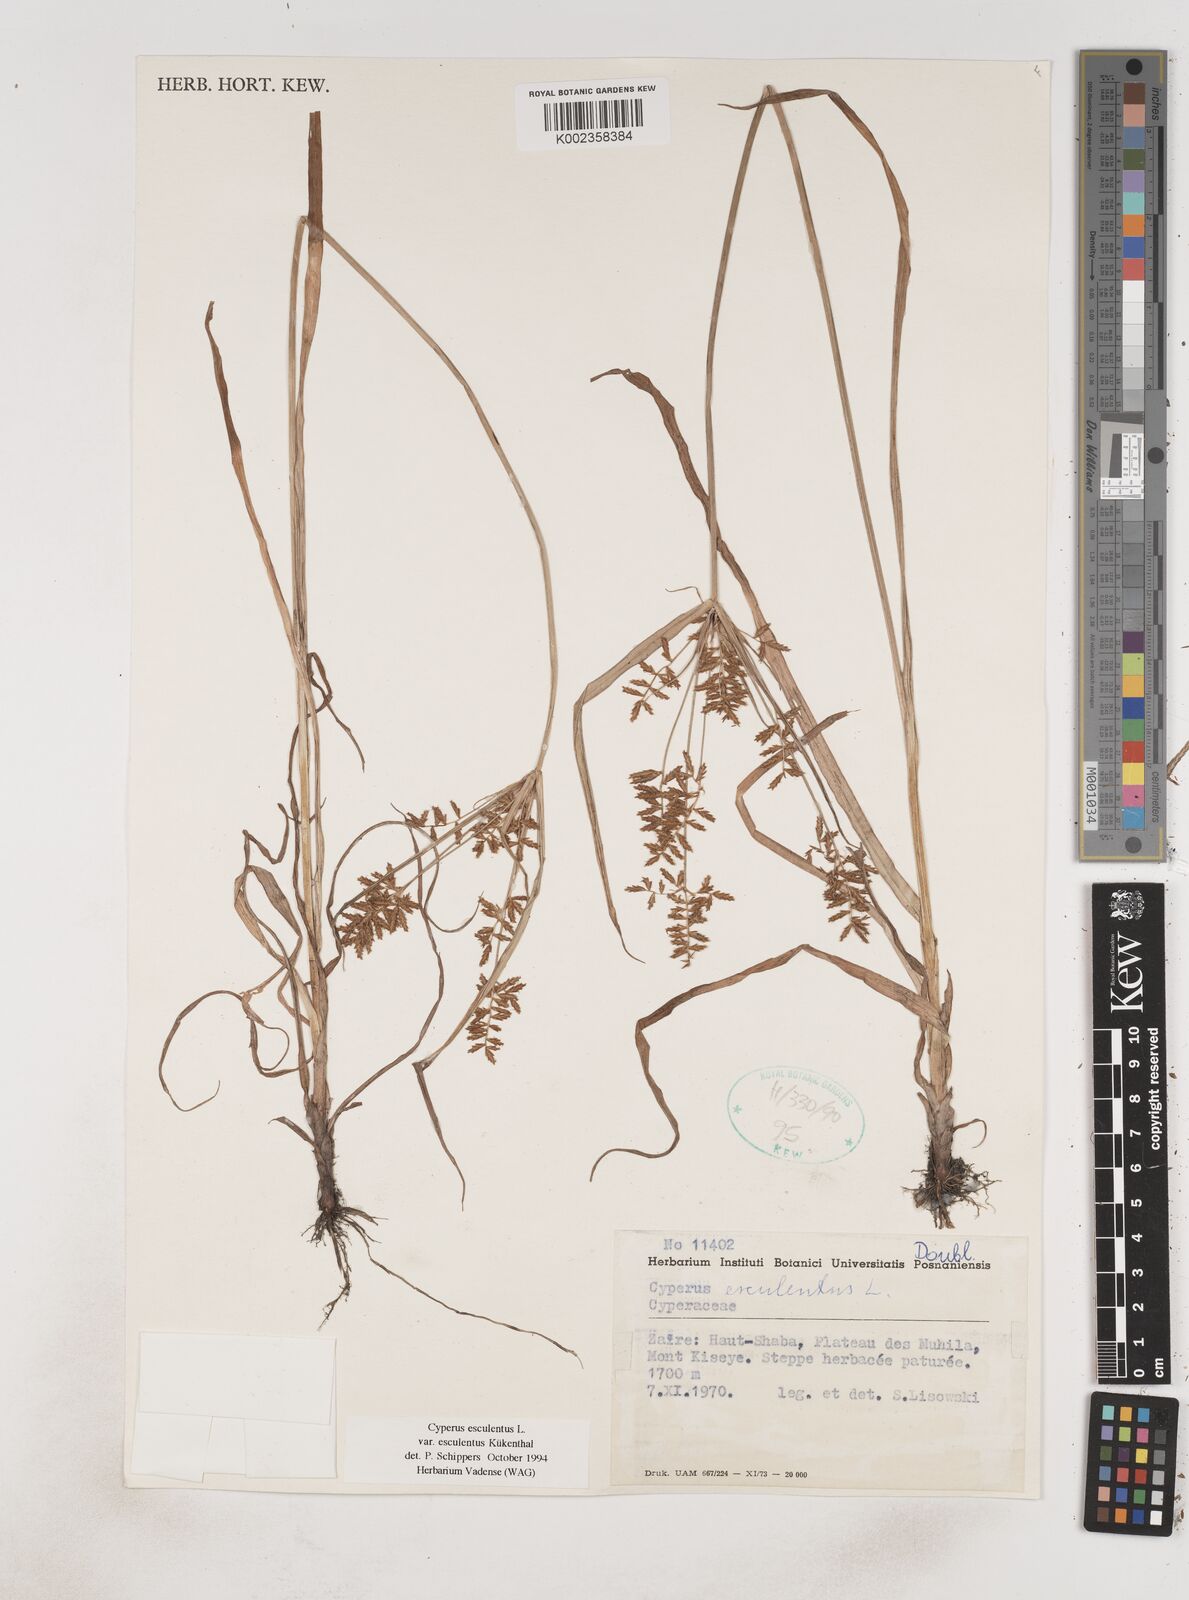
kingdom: Plantae
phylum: Tracheophyta
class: Liliopsida
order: Poales
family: Cyperaceae
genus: Cyperus
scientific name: Cyperus esculentus
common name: Yellow nutsedge
